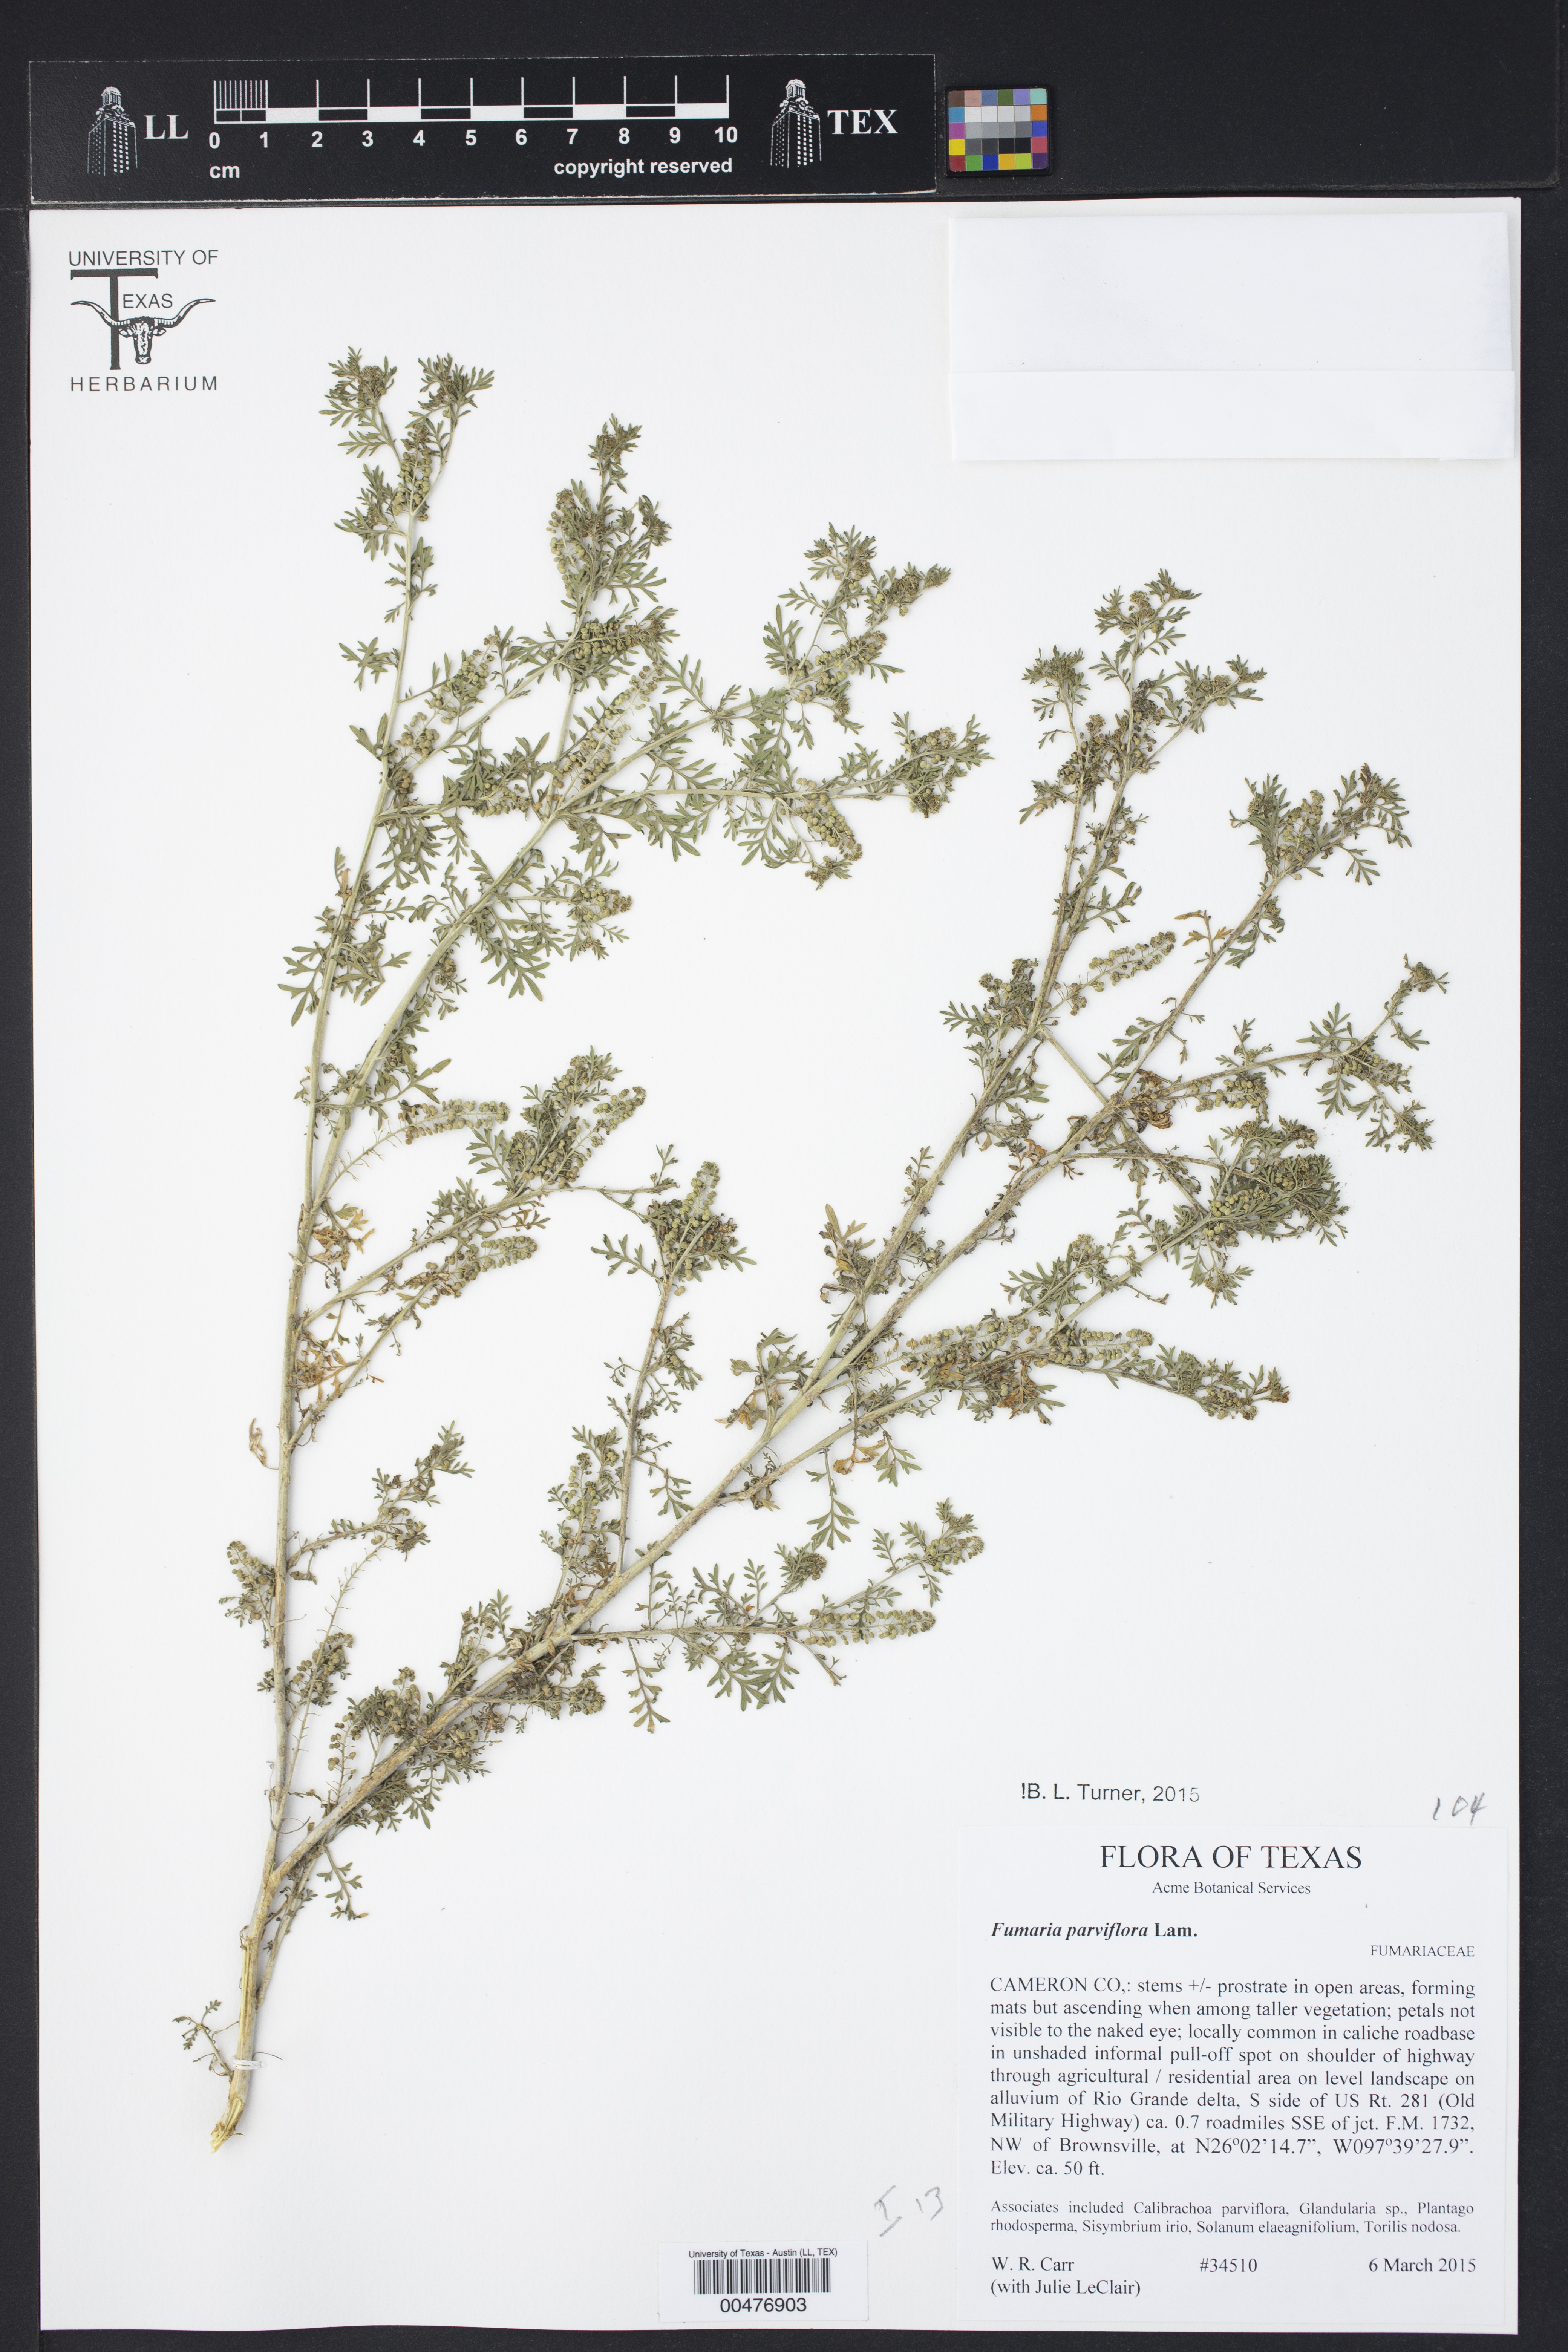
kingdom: Plantae
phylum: Tracheophyta
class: Magnoliopsida
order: Ranunculales
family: Papaveraceae
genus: Fumaria
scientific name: Fumaria parviflora
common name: Fine-leaved fumitory
